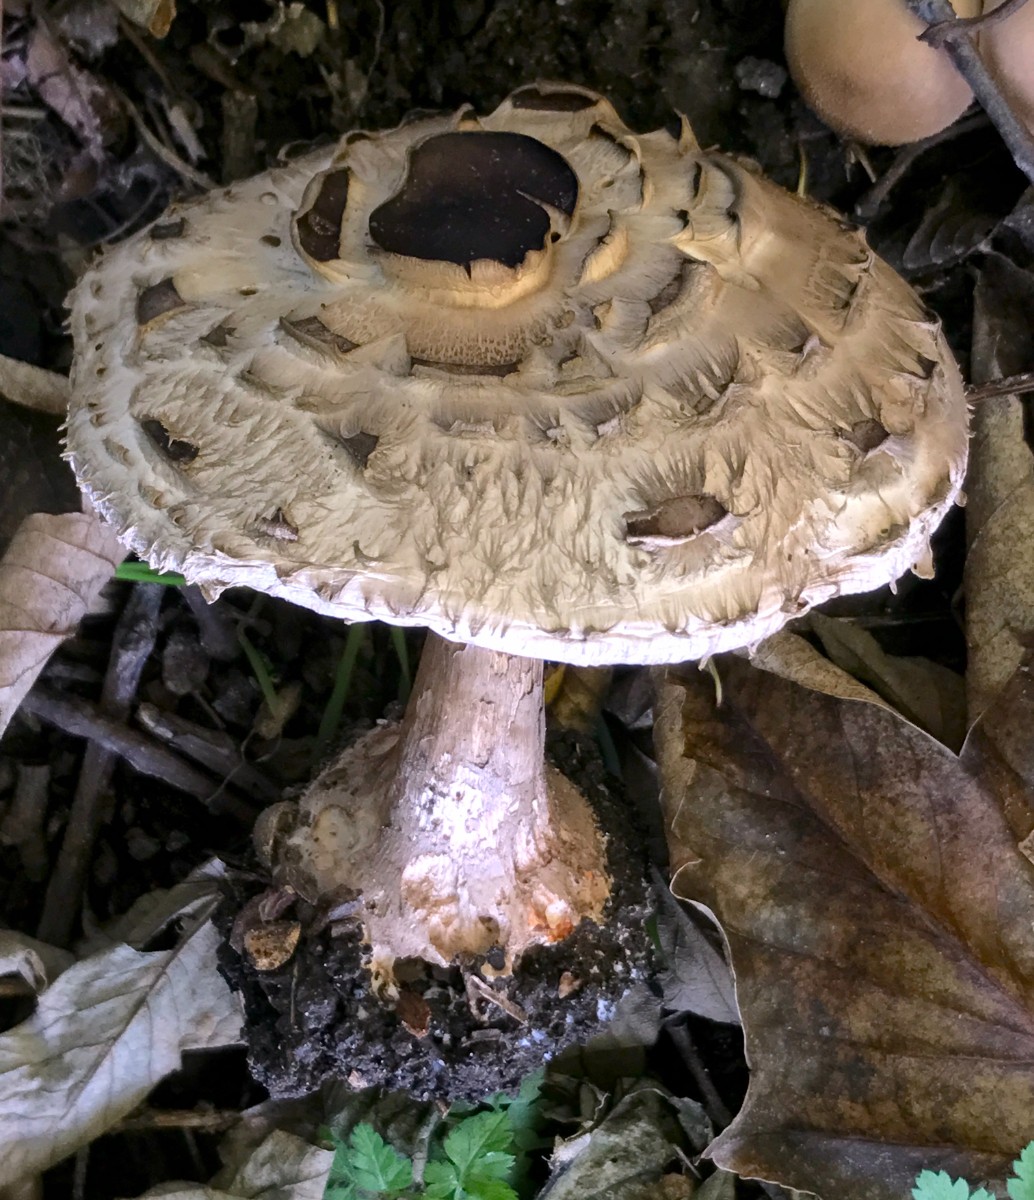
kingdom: Fungi
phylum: Basidiomycota
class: Agaricomycetes
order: Agaricales
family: Agaricaceae
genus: Chlorophyllum
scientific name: Chlorophyllum brunneum
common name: giftig rabarberhat
